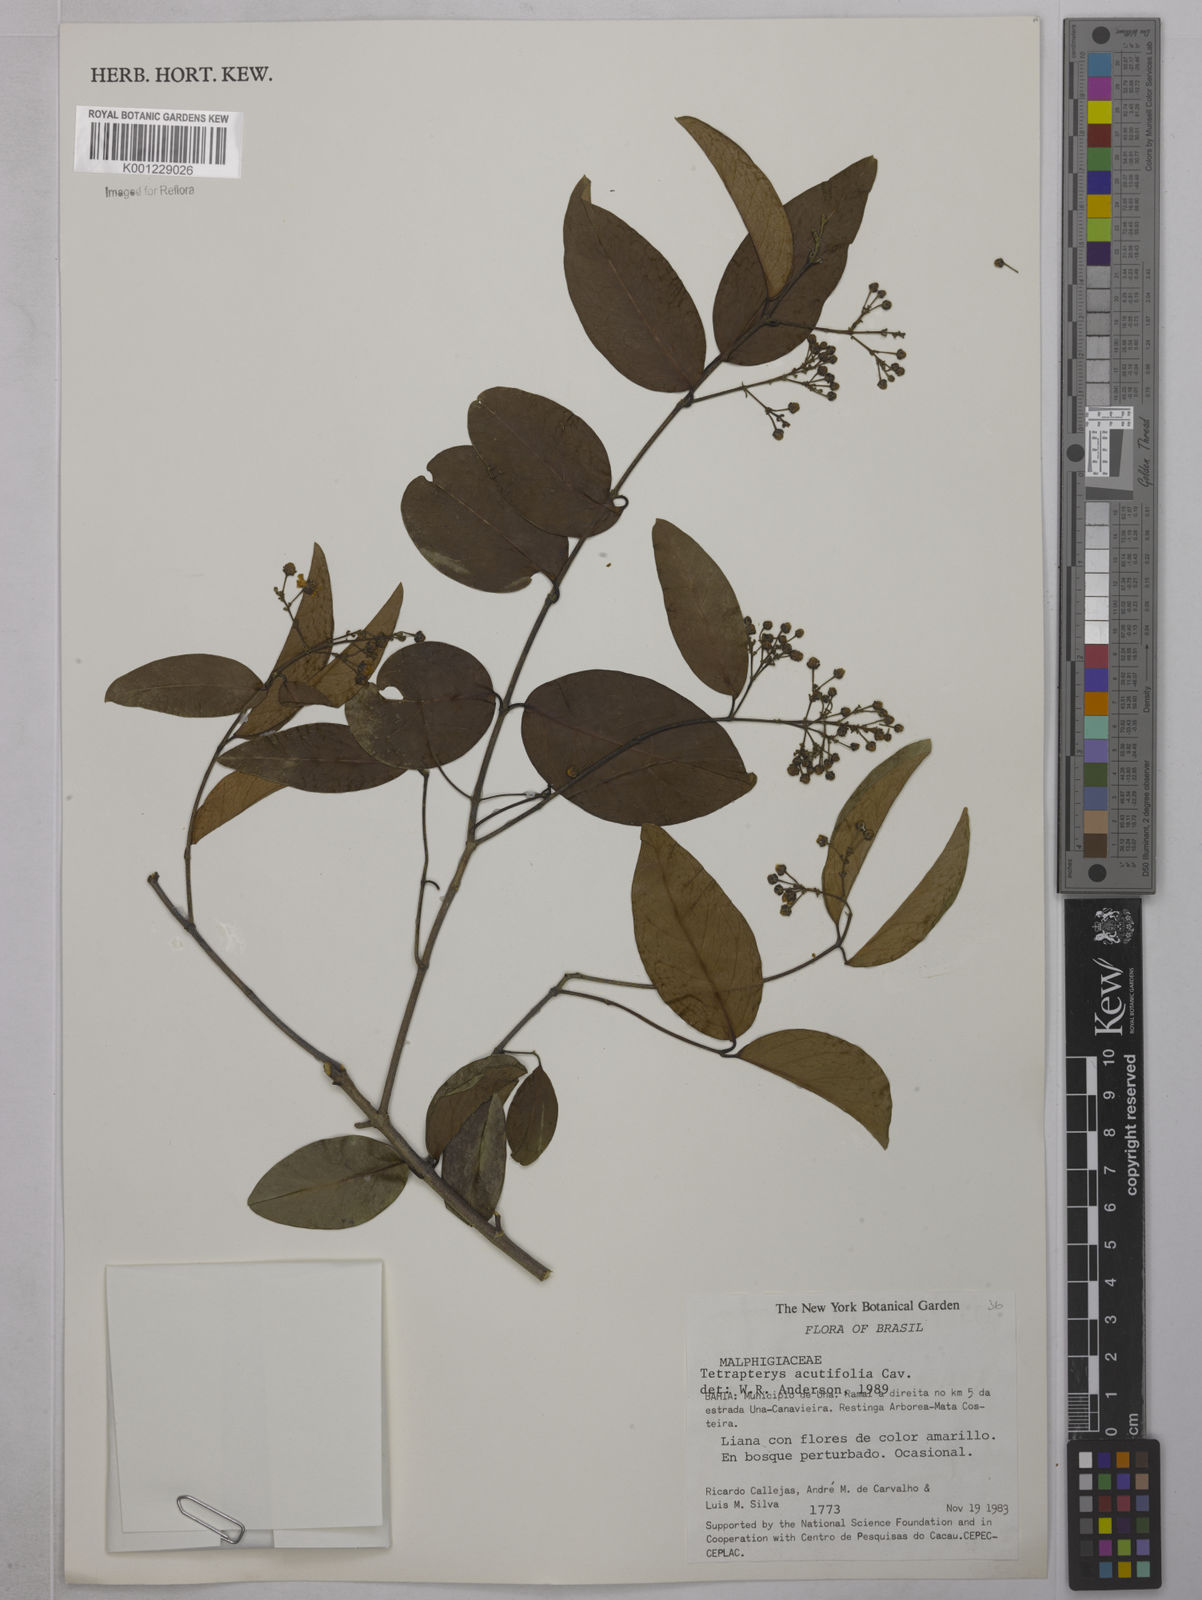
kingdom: Plantae
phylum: Tracheophyta
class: Magnoliopsida
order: Malpighiales
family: Malpighiaceae
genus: Niedenzuella
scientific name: Niedenzuella acutifolia
